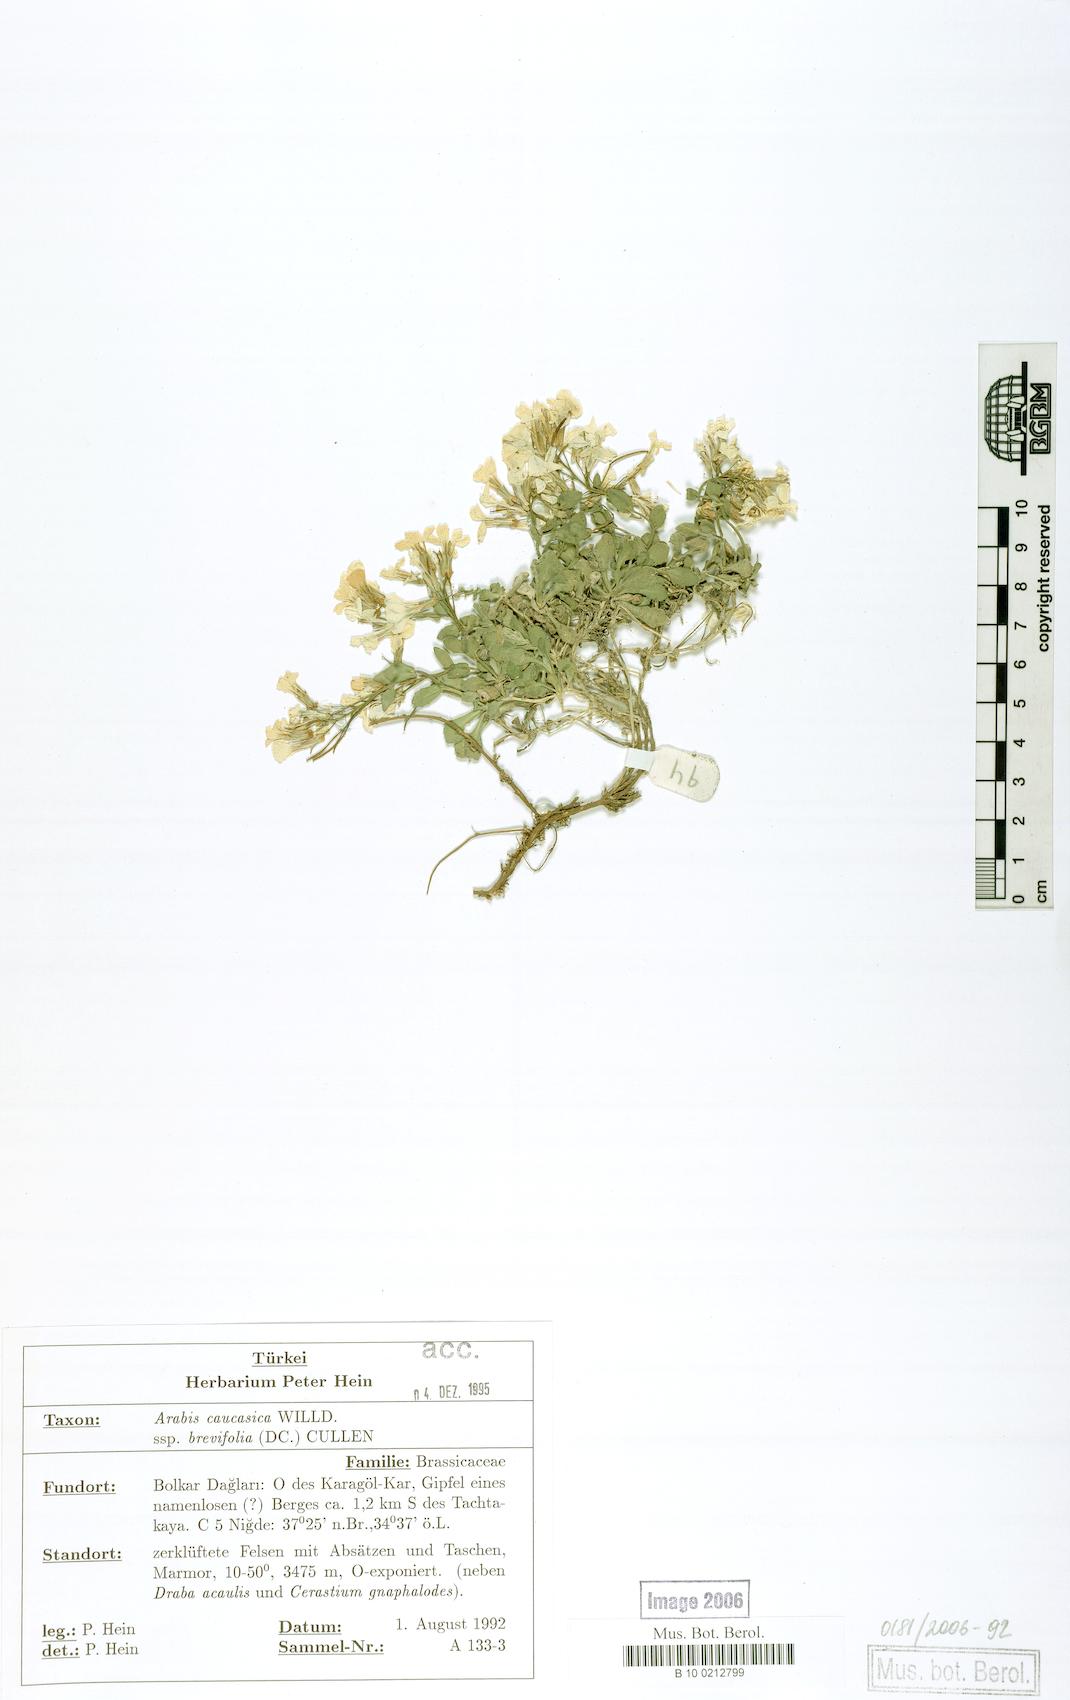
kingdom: Plantae
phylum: Tracheophyta
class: Magnoliopsida
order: Brassicales
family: Brassicaceae
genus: Arabis
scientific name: Arabis caucasica
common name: Gray rockcress
